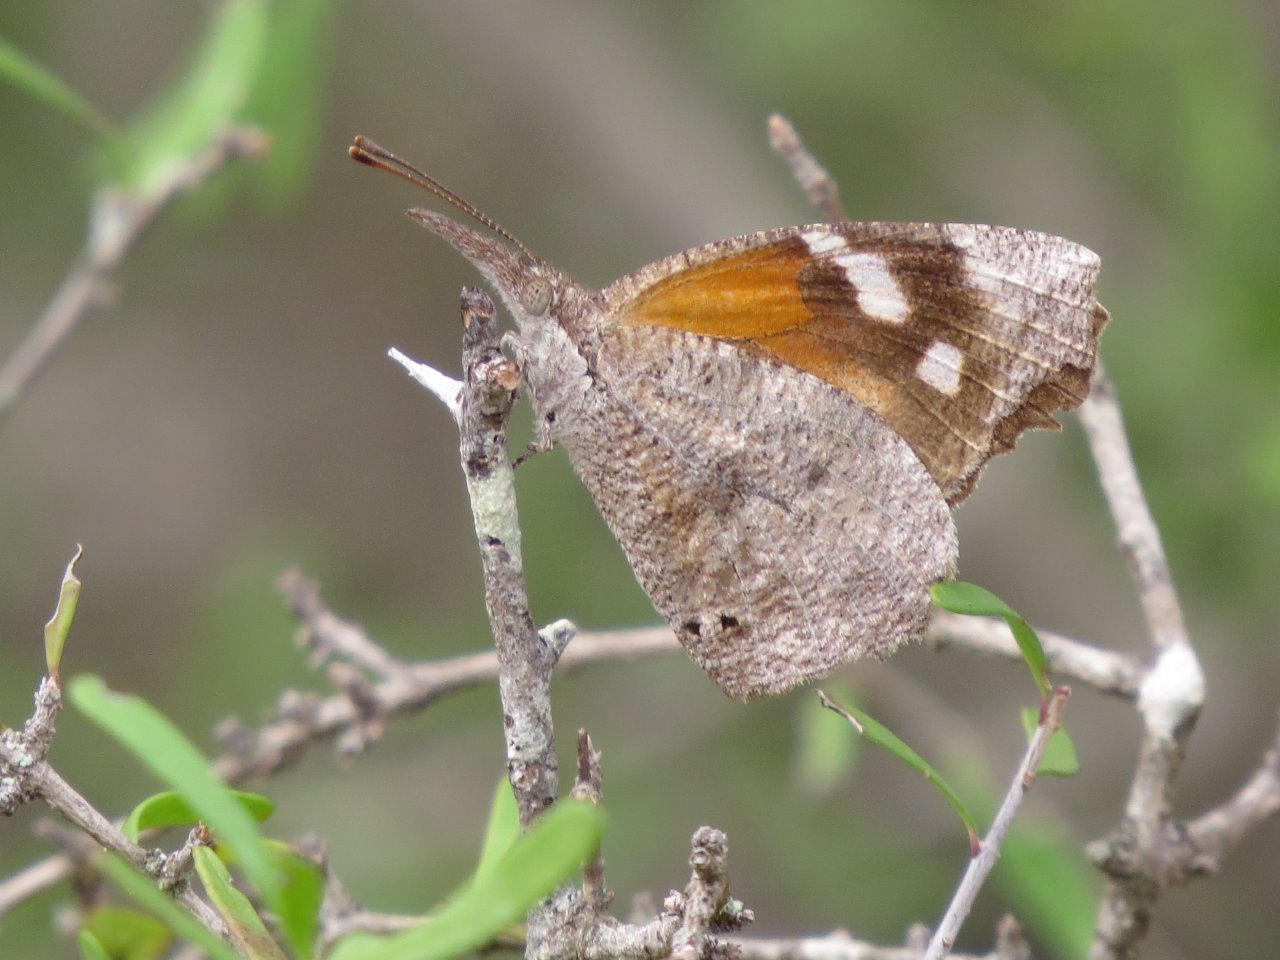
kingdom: Animalia
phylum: Arthropoda
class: Insecta
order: Lepidoptera
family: Nymphalidae
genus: Libytheana
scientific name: Libytheana carinenta
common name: American Snout
